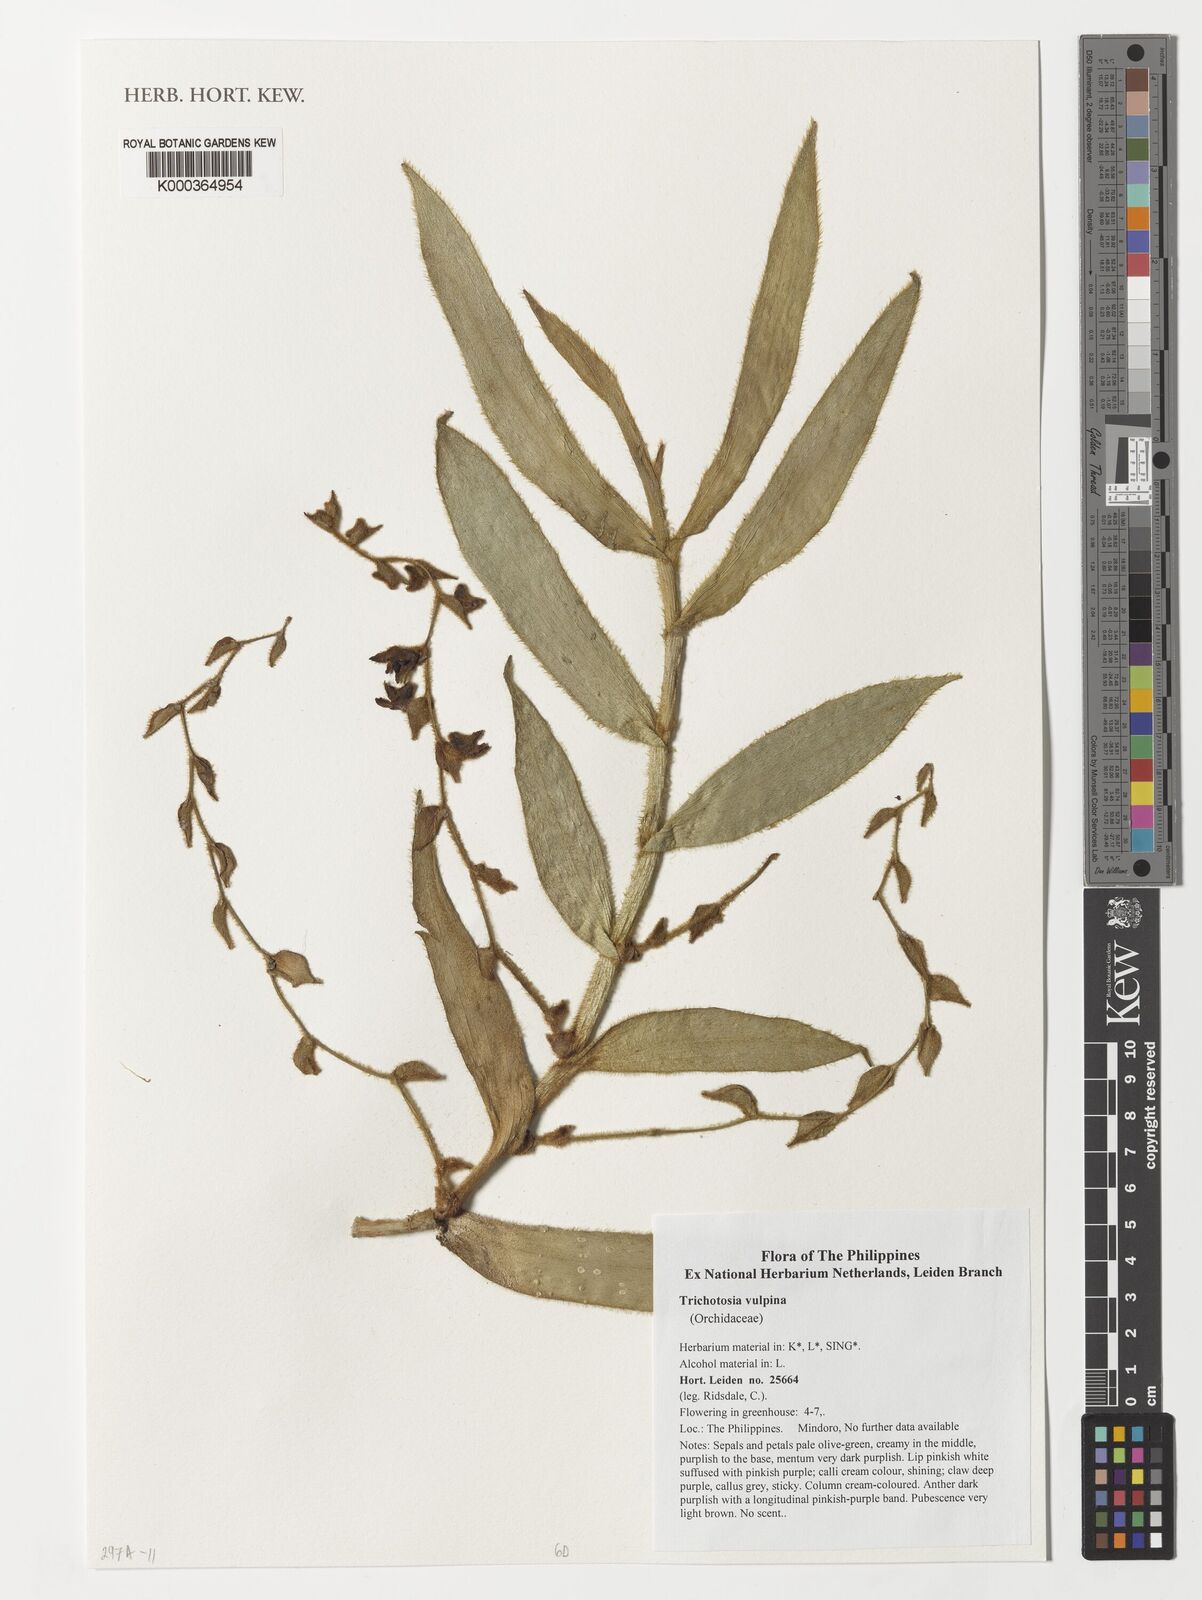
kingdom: Plantae
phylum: Tracheophyta
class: Liliopsida
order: Asparagales
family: Orchidaceae
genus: Trichotosia
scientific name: Trichotosia vulpina
